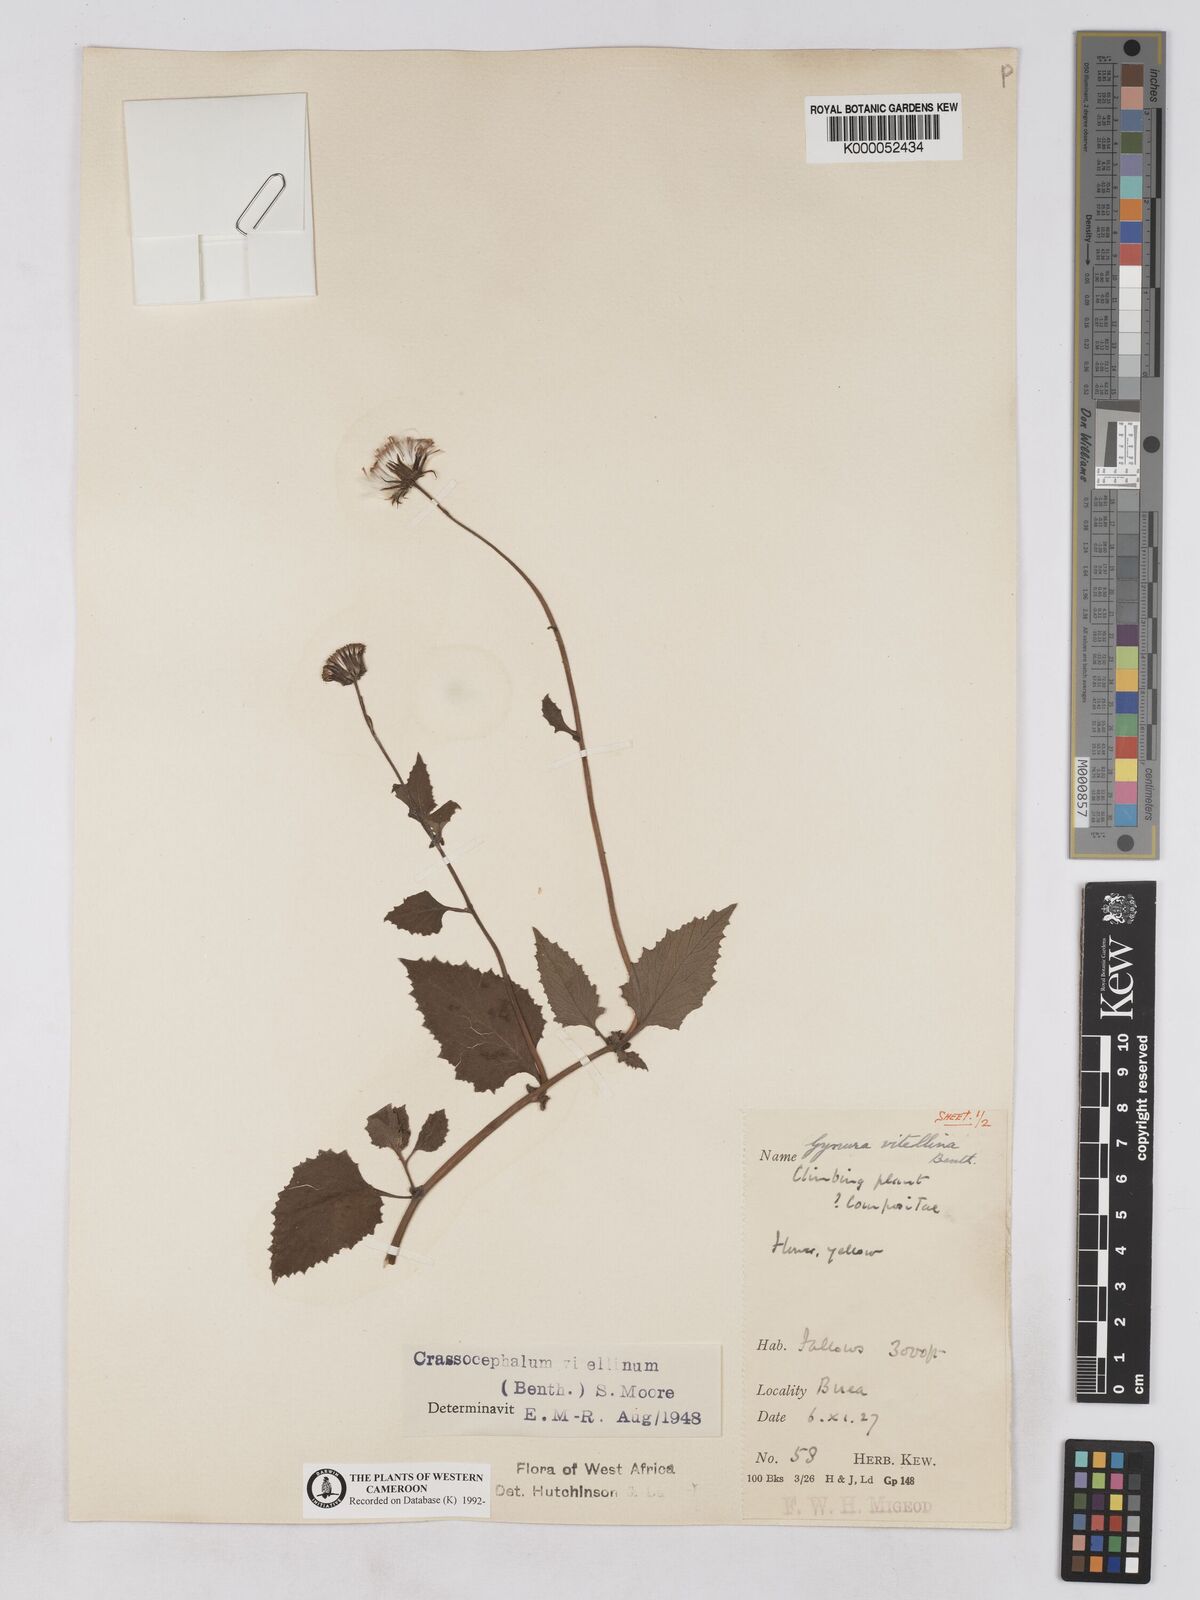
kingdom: Plantae
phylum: Tracheophyta
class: Magnoliopsida
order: Asterales
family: Asteraceae
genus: Crassocephalum
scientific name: Crassocephalum vitellinum
